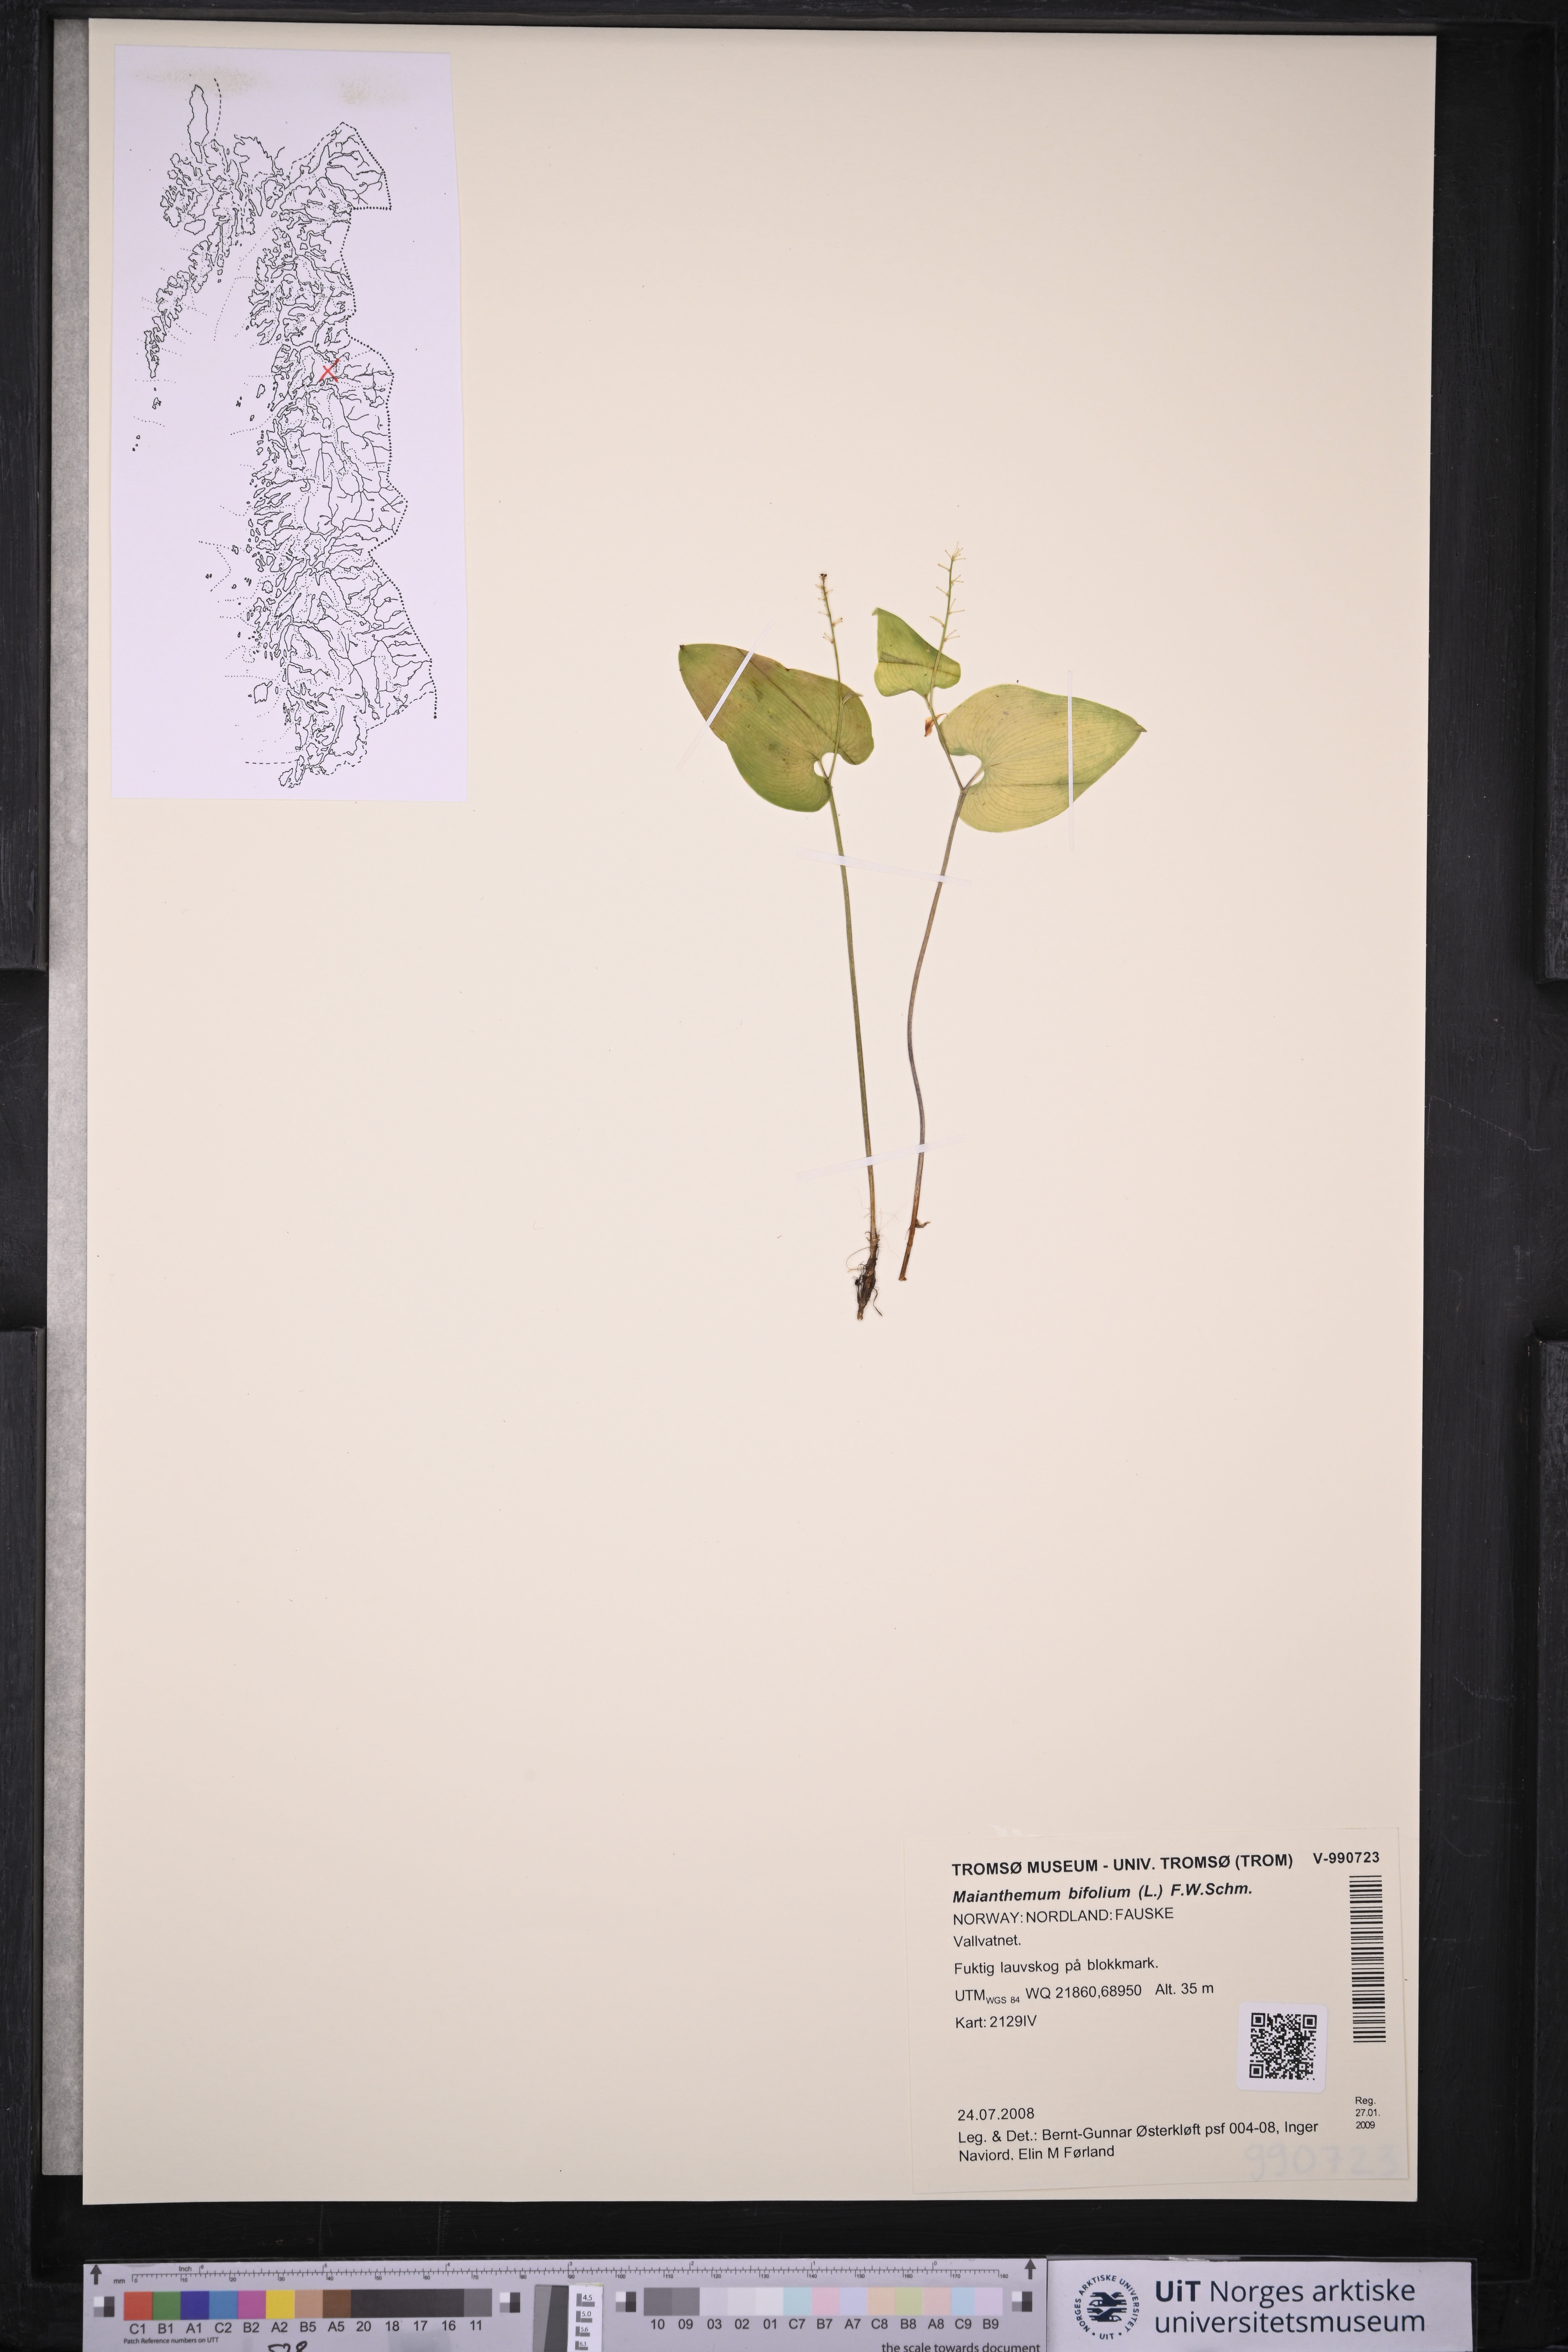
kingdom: Plantae
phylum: Tracheophyta
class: Liliopsida
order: Asparagales
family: Asparagaceae
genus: Maianthemum
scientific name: Maianthemum bifolium
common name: May lily
